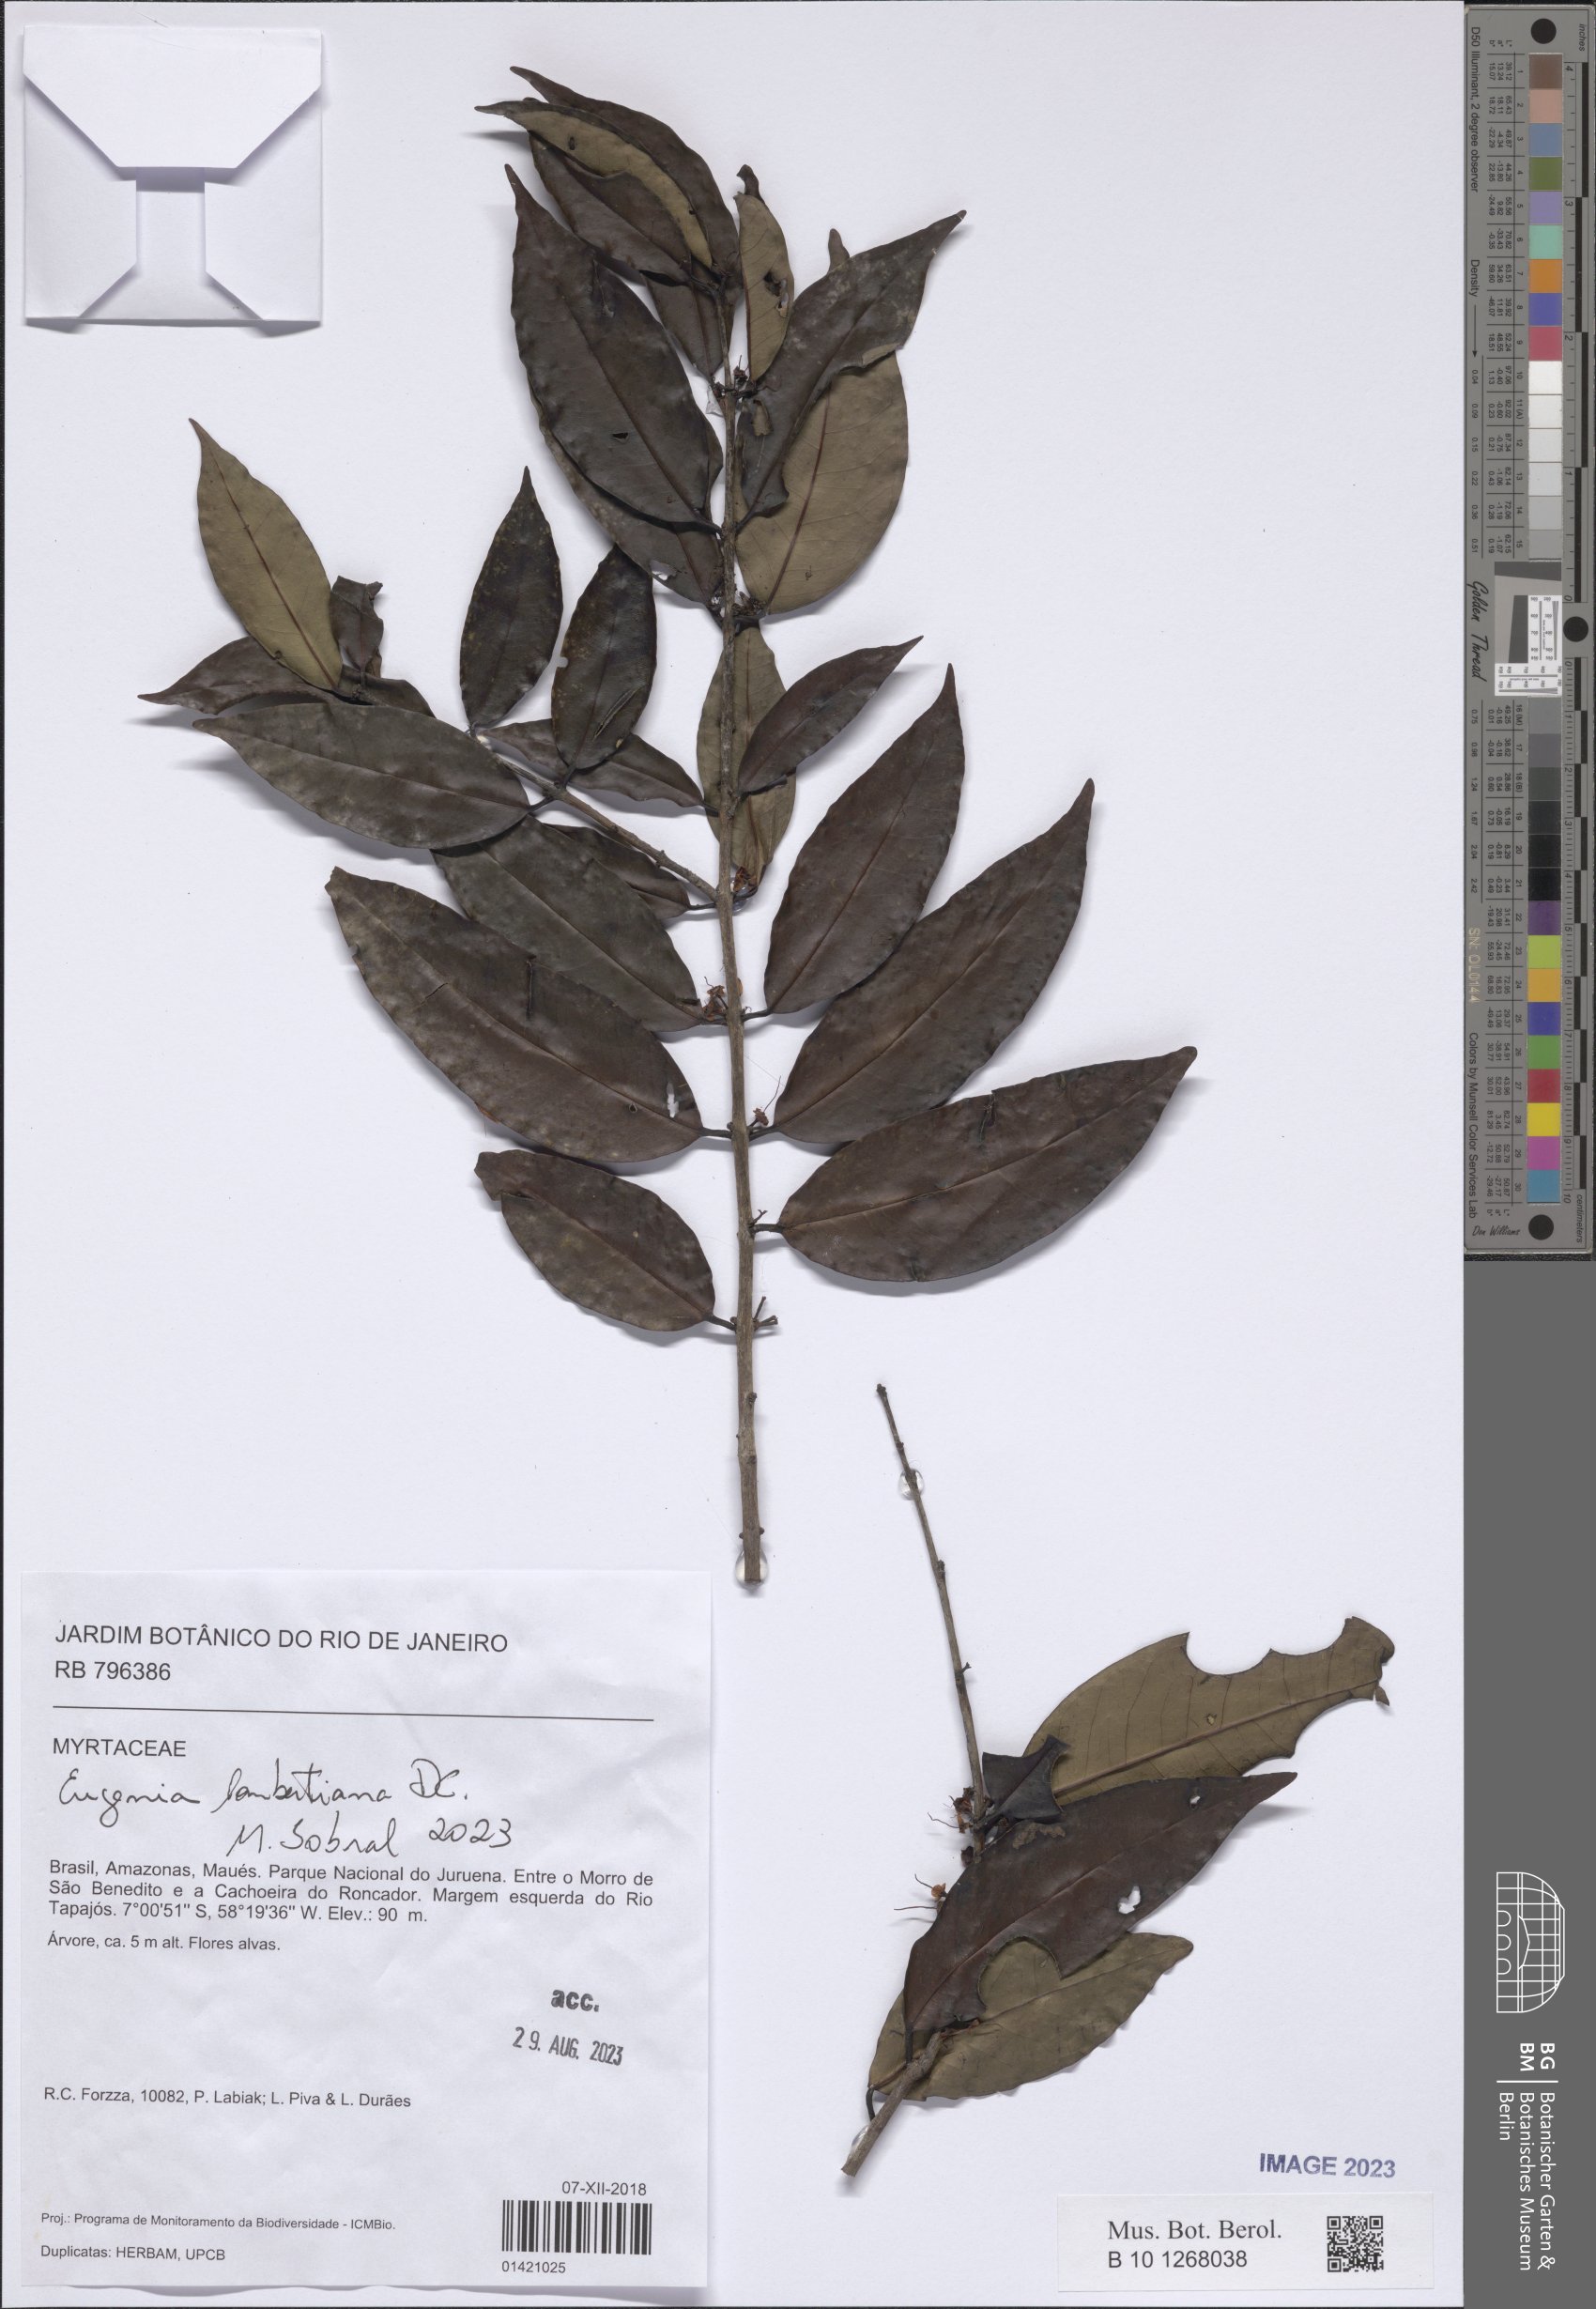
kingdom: Plantae
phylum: Tracheophyta
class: Magnoliopsida
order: Myrtales
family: Myrtaceae
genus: Eugenia
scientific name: Eugenia lambertiana
